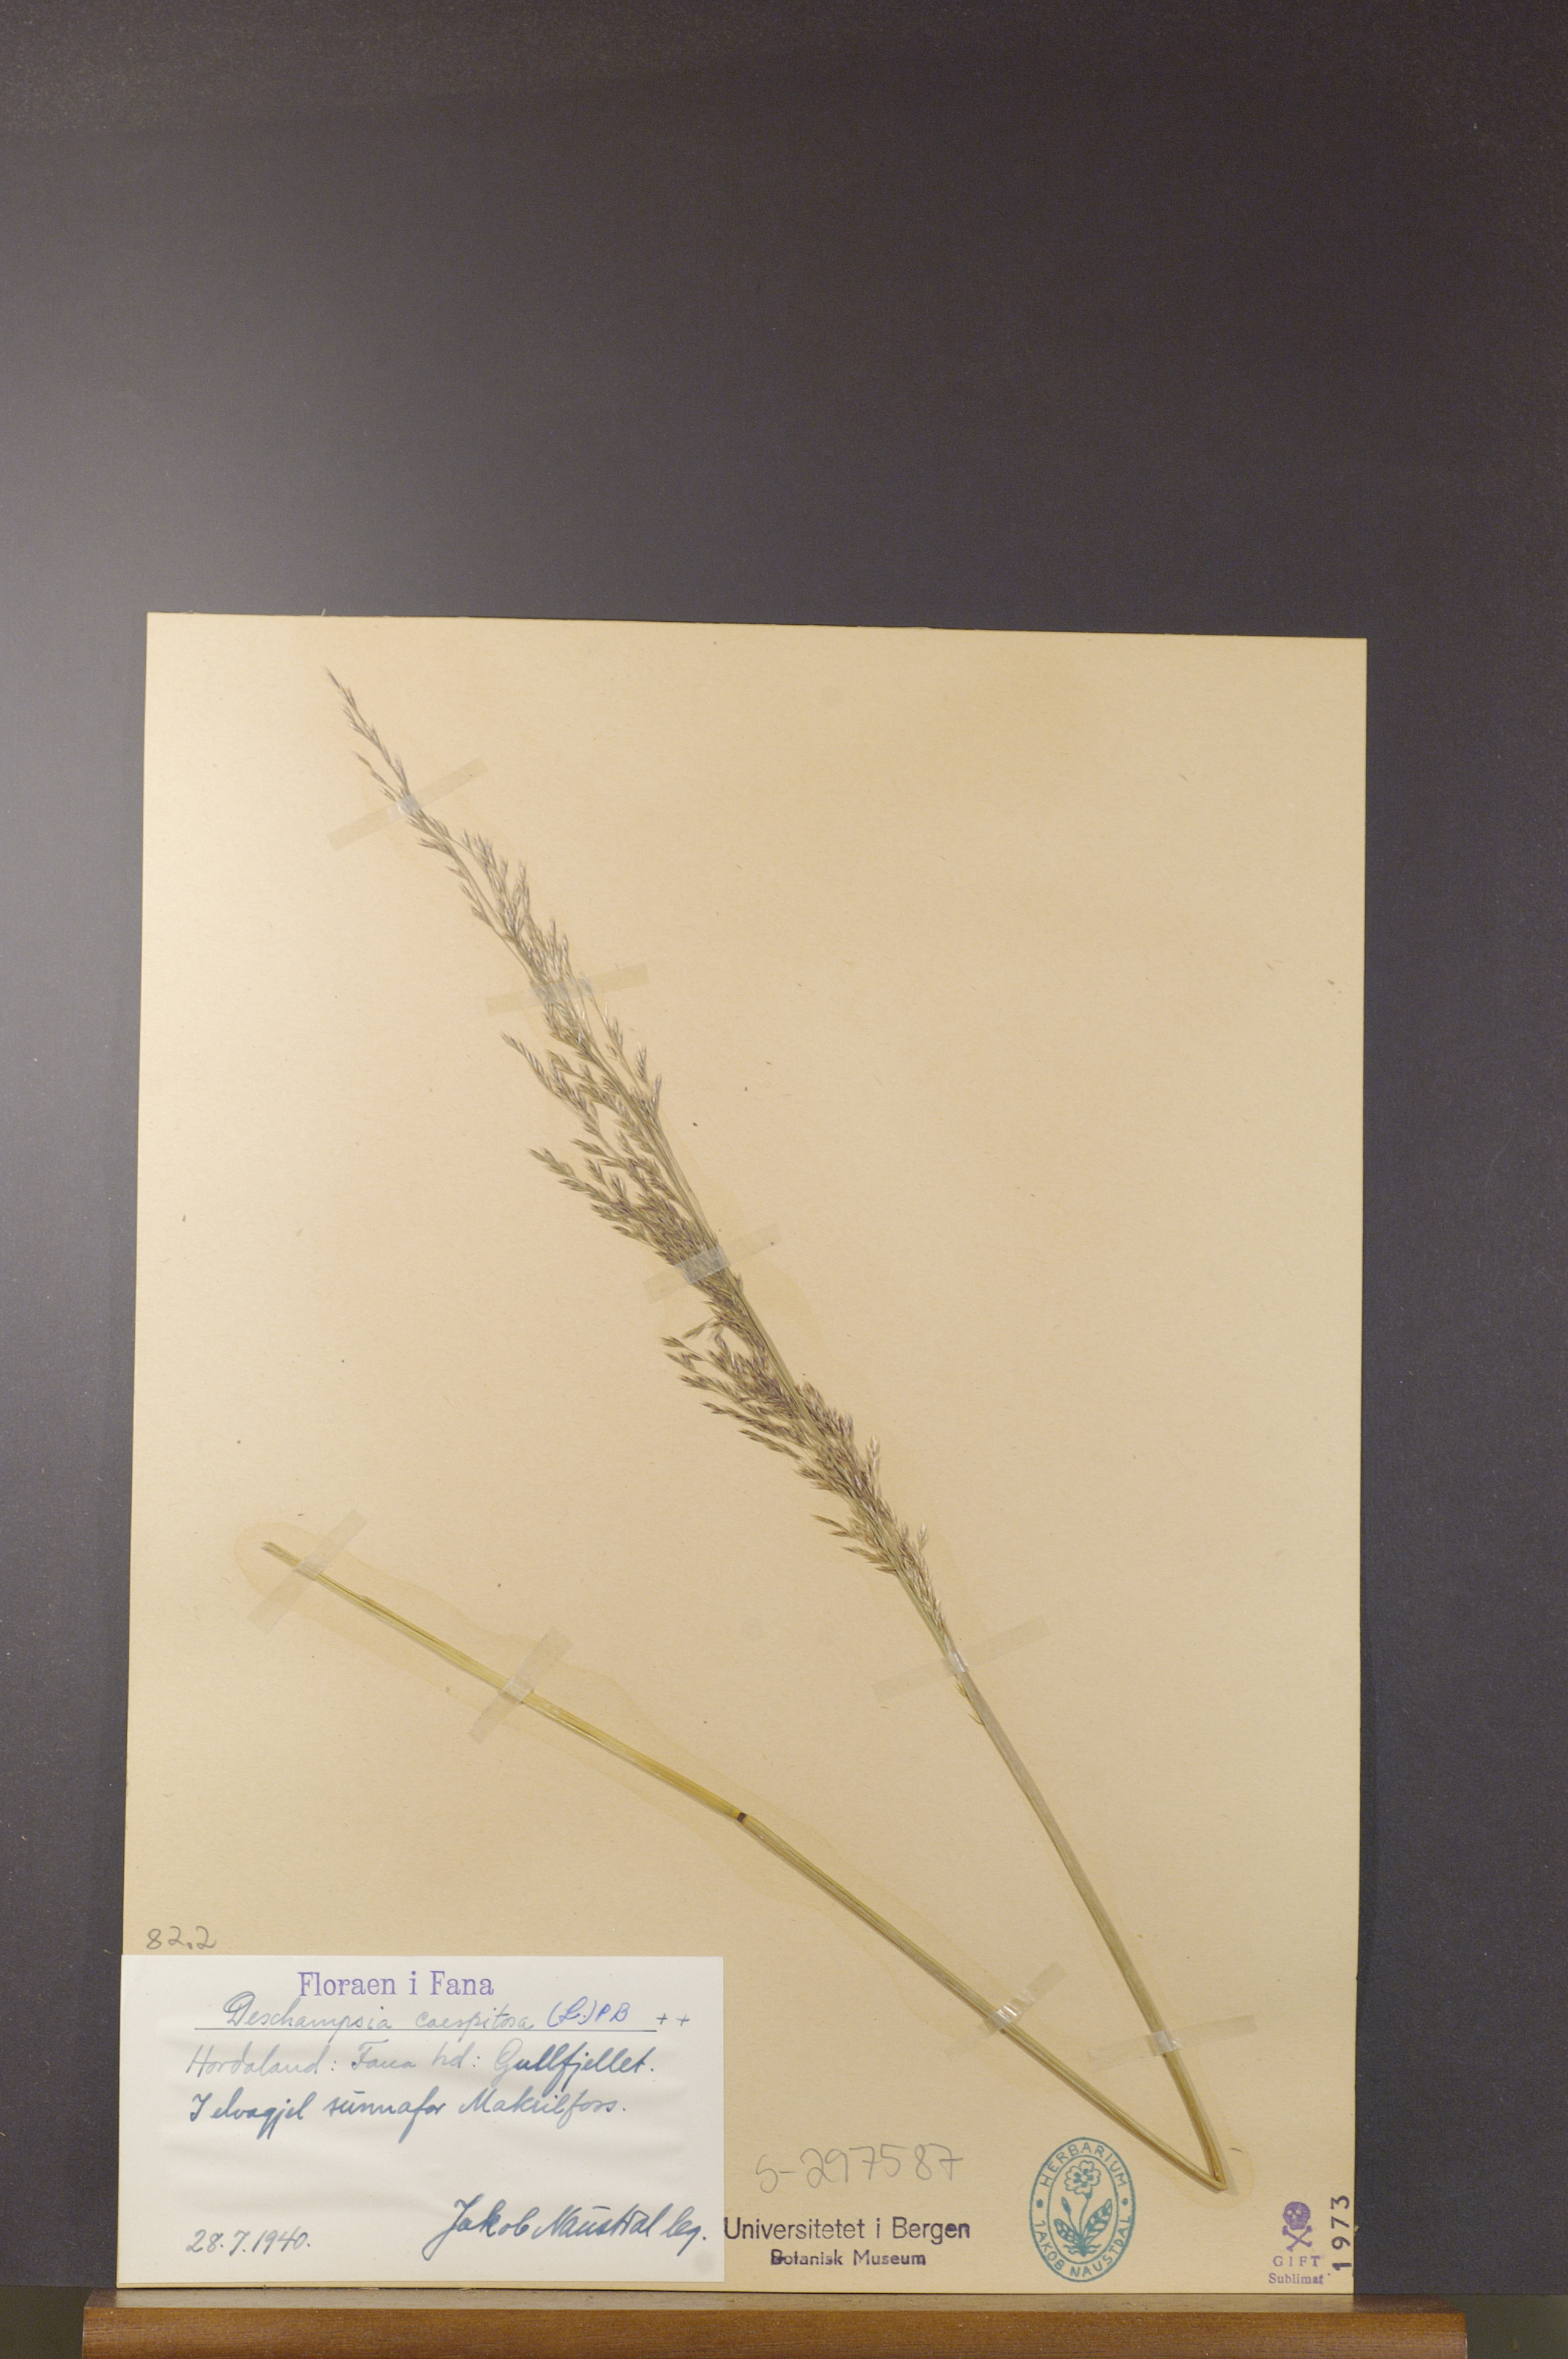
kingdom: Plantae
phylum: Tracheophyta
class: Liliopsida
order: Poales
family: Poaceae
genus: Deschampsia
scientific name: Deschampsia cespitosa
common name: Tufted hair-grass
